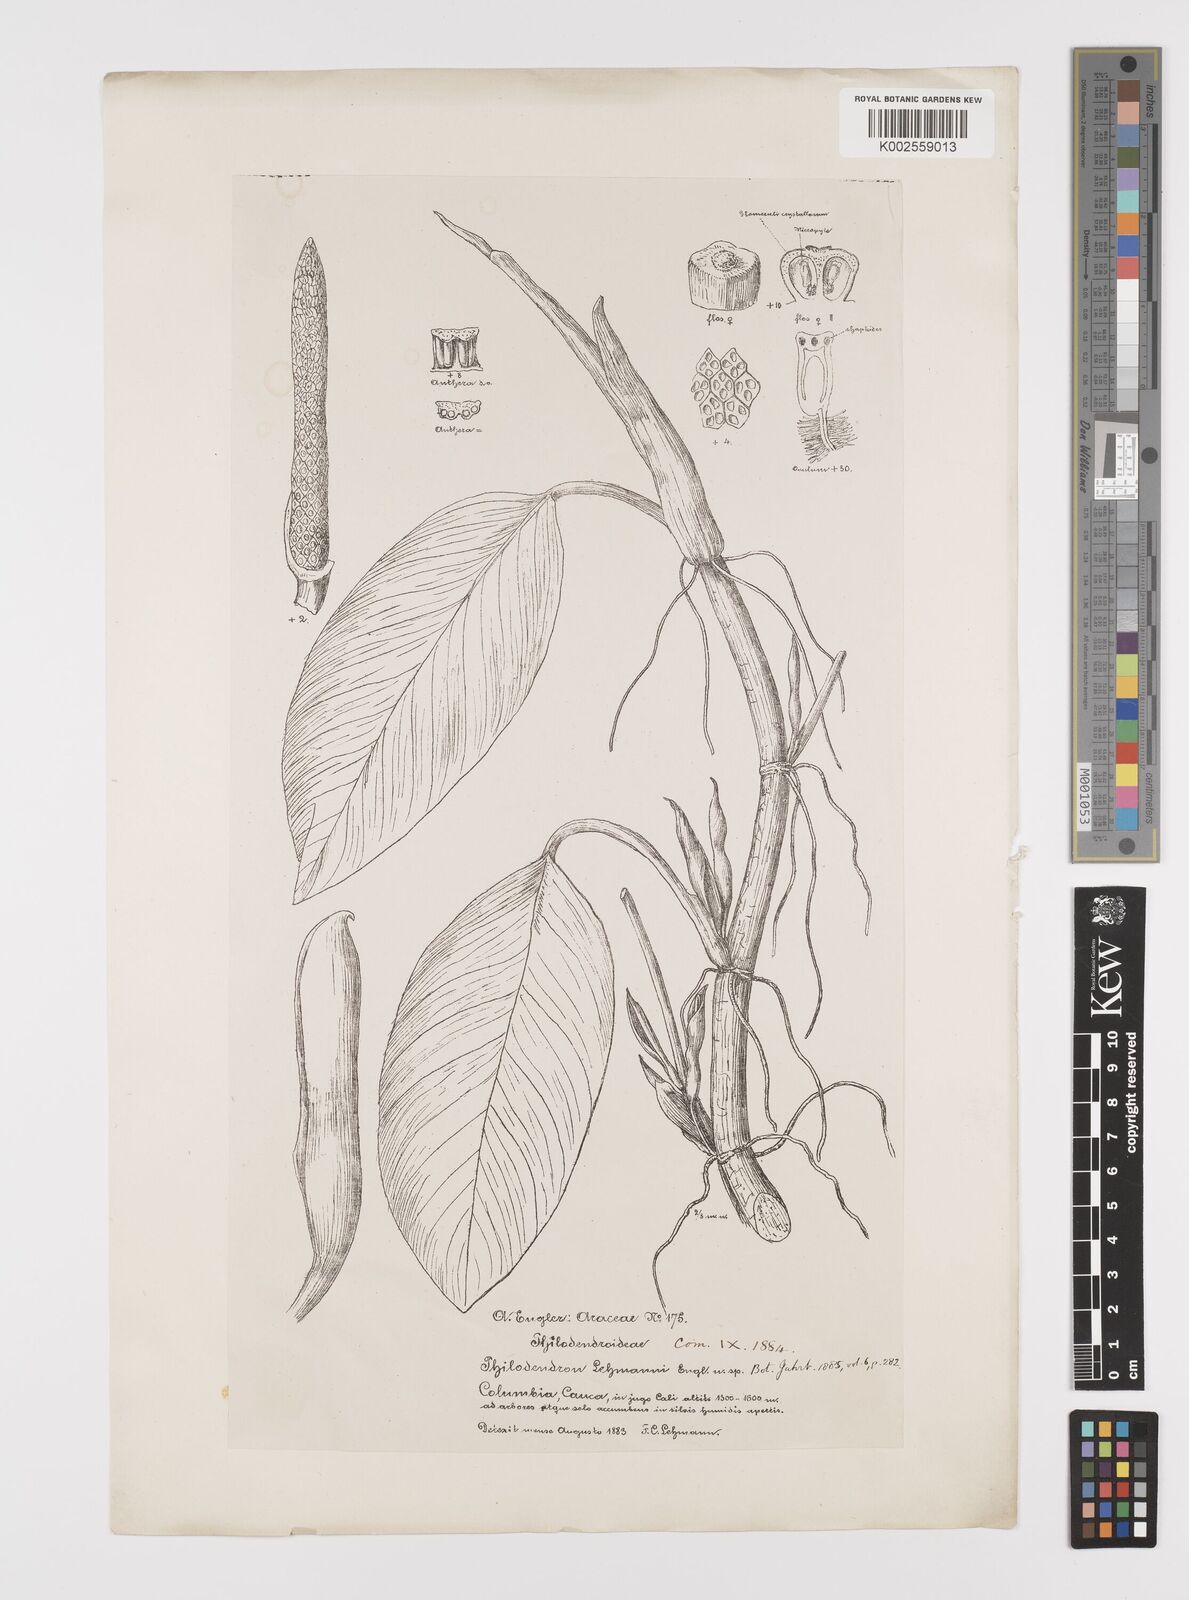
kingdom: Plantae
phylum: Tracheophyta
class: Liliopsida
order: Alismatales
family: Araceae
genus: Philodendron
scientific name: Philodendron lehmannii
